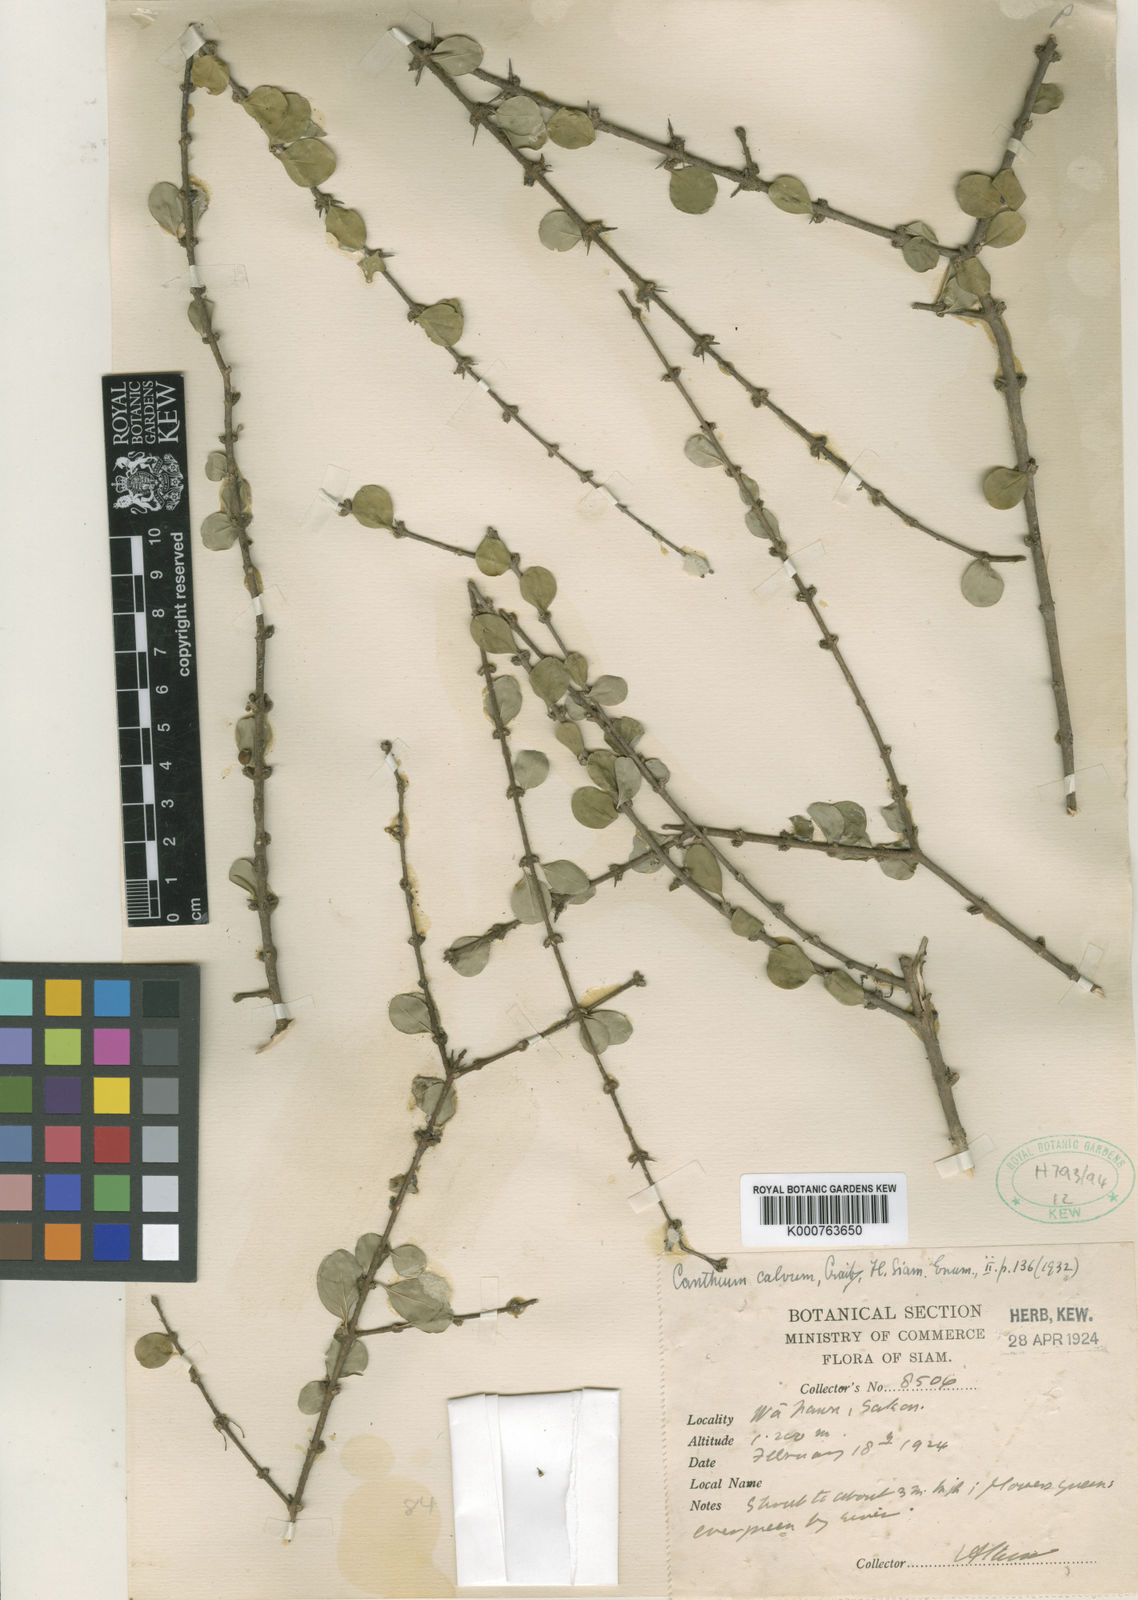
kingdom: Plantae
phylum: Tracheophyta
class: Magnoliopsida
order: Gentianales
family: Rubiaceae
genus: Canthium
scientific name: Canthium calvum
